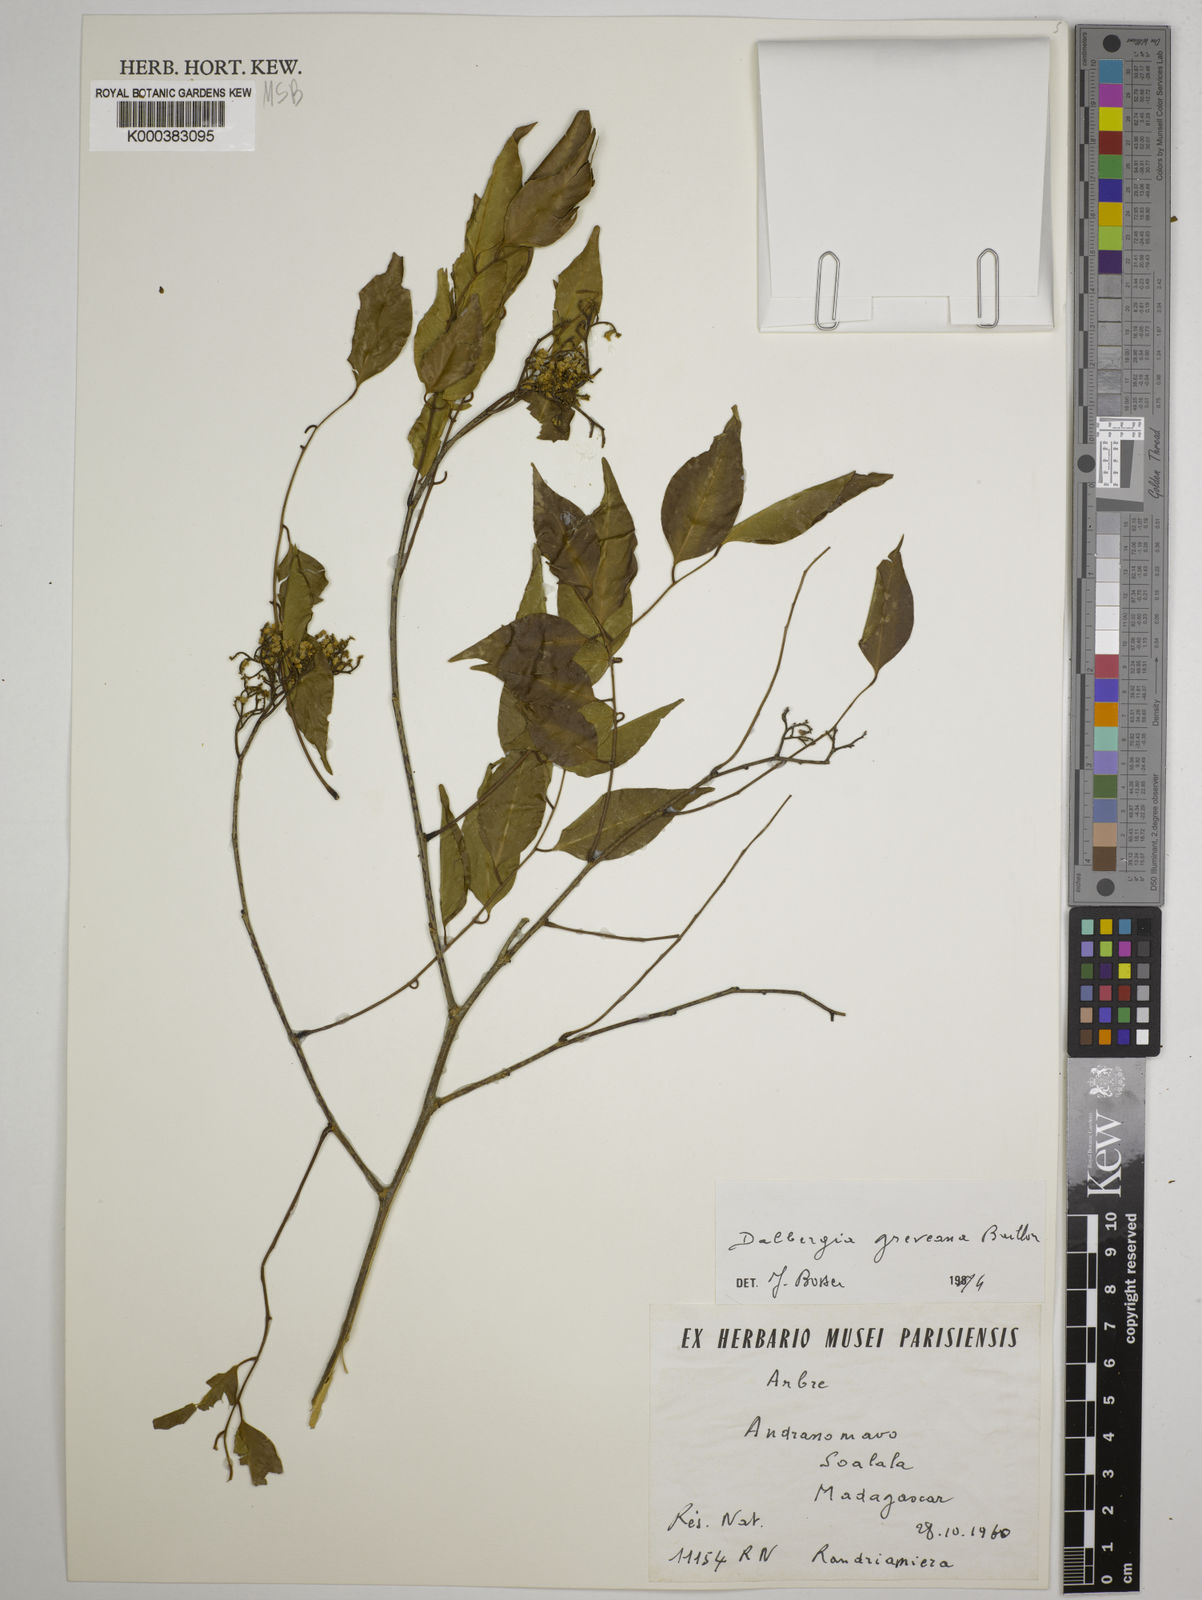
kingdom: Plantae
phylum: Tracheophyta
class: Magnoliopsida
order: Fabales
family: Fabaceae
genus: Dalbergia
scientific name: Dalbergia greveana
